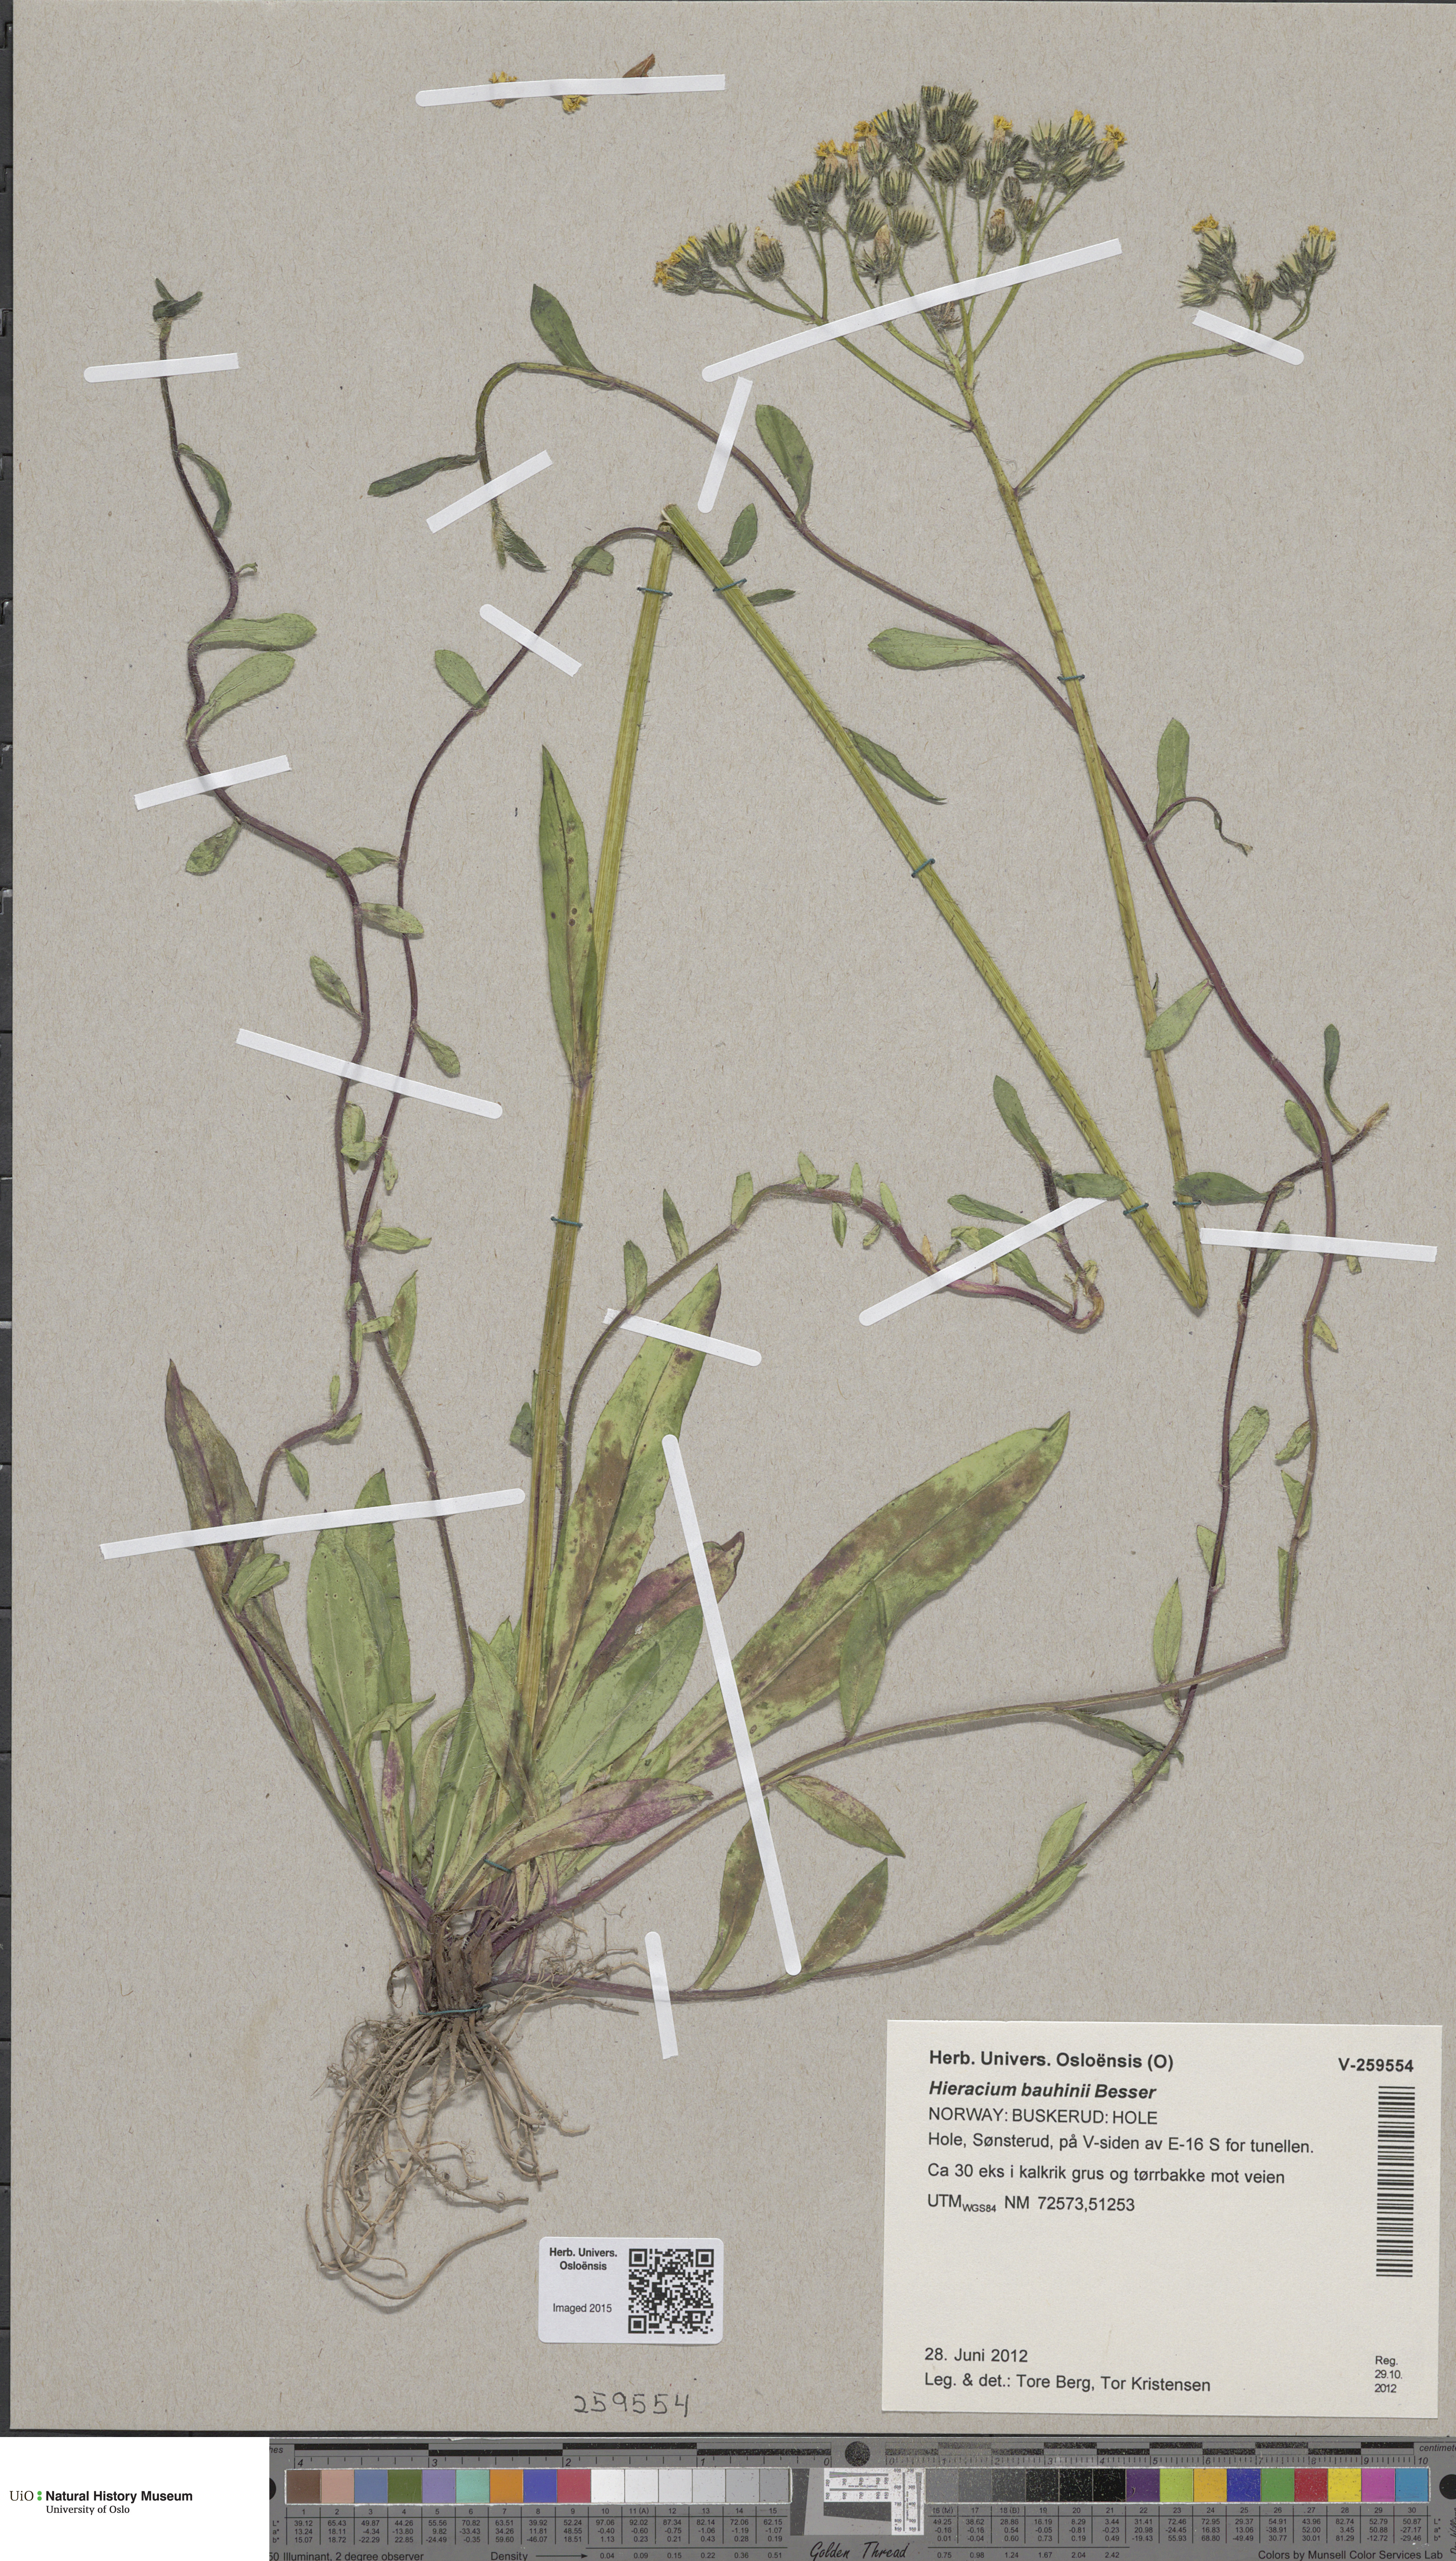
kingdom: Plantae
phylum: Tracheophyta
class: Magnoliopsida
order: Asterales
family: Asteraceae
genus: Pilosella
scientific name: Pilosella bauhini
